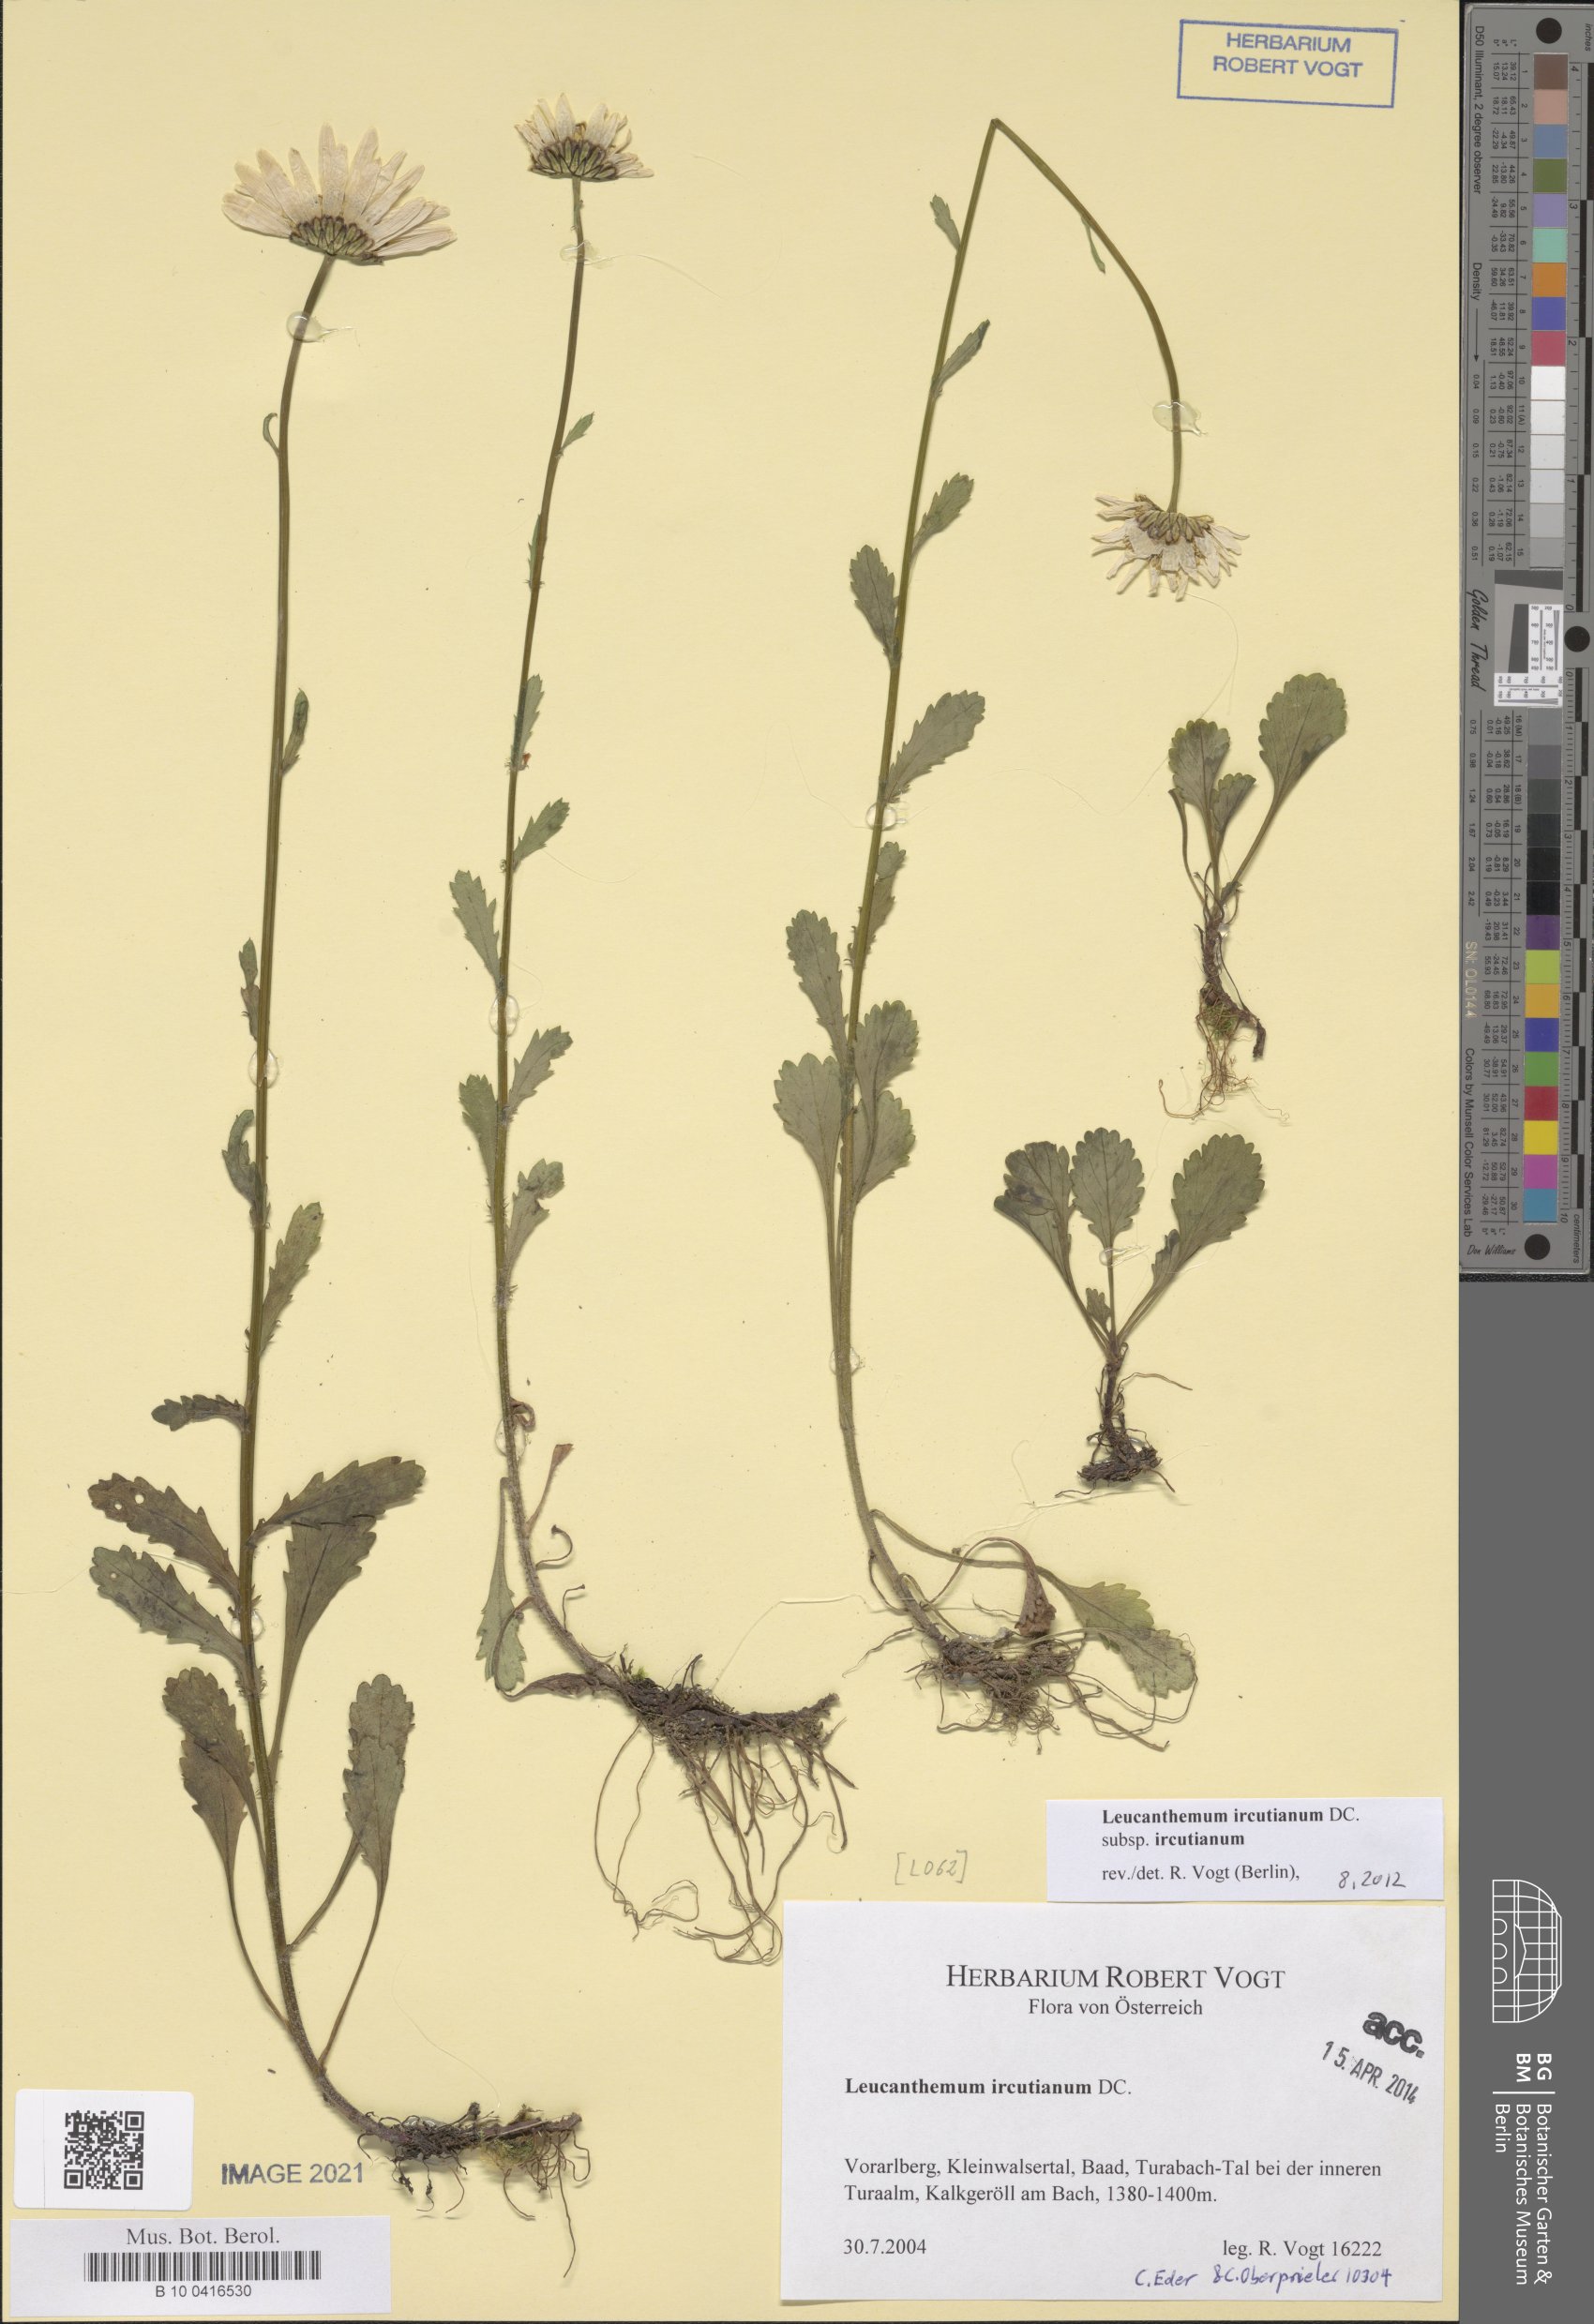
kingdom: Plantae
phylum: Tracheophyta
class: Magnoliopsida
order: Asterales
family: Asteraceae
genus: Leucanthemum
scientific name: Leucanthemum ircutianum
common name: Daisy
